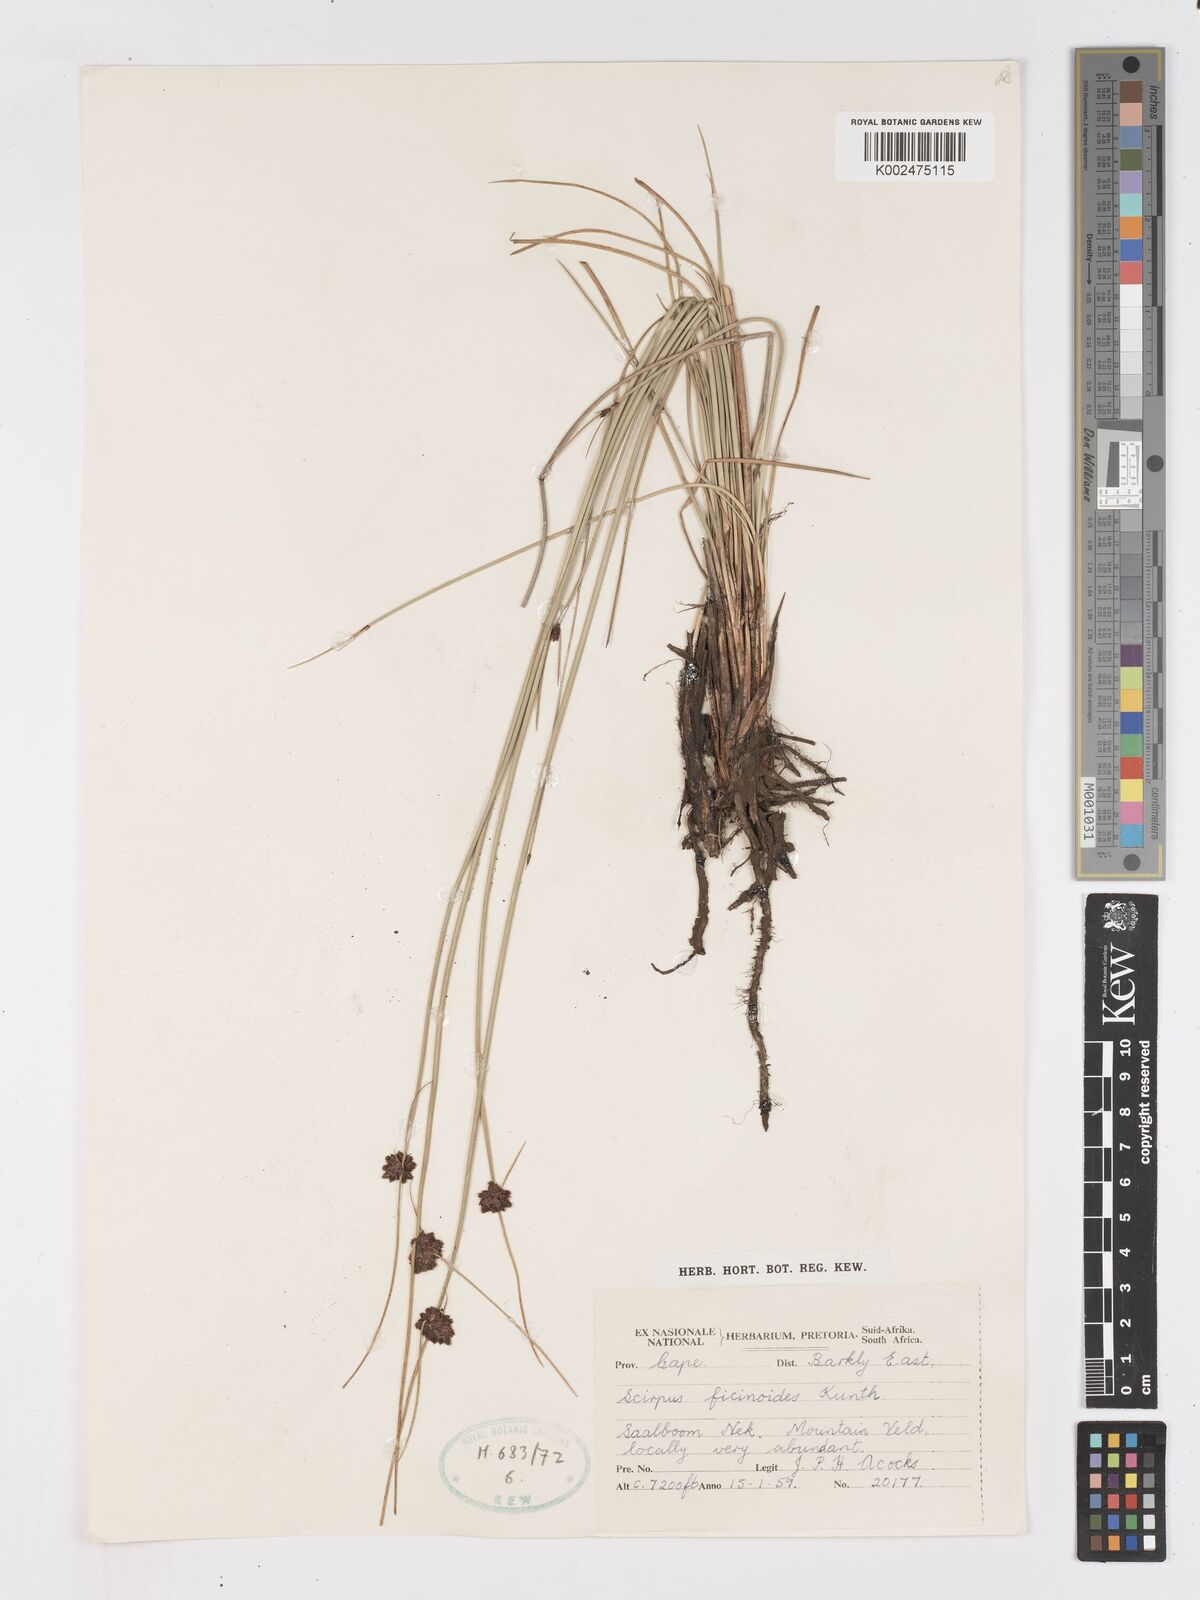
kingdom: Plantae
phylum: Tracheophyta
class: Liliopsida
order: Poales
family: Cyperaceae
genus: Ficinia
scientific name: Ficinia filiformis
